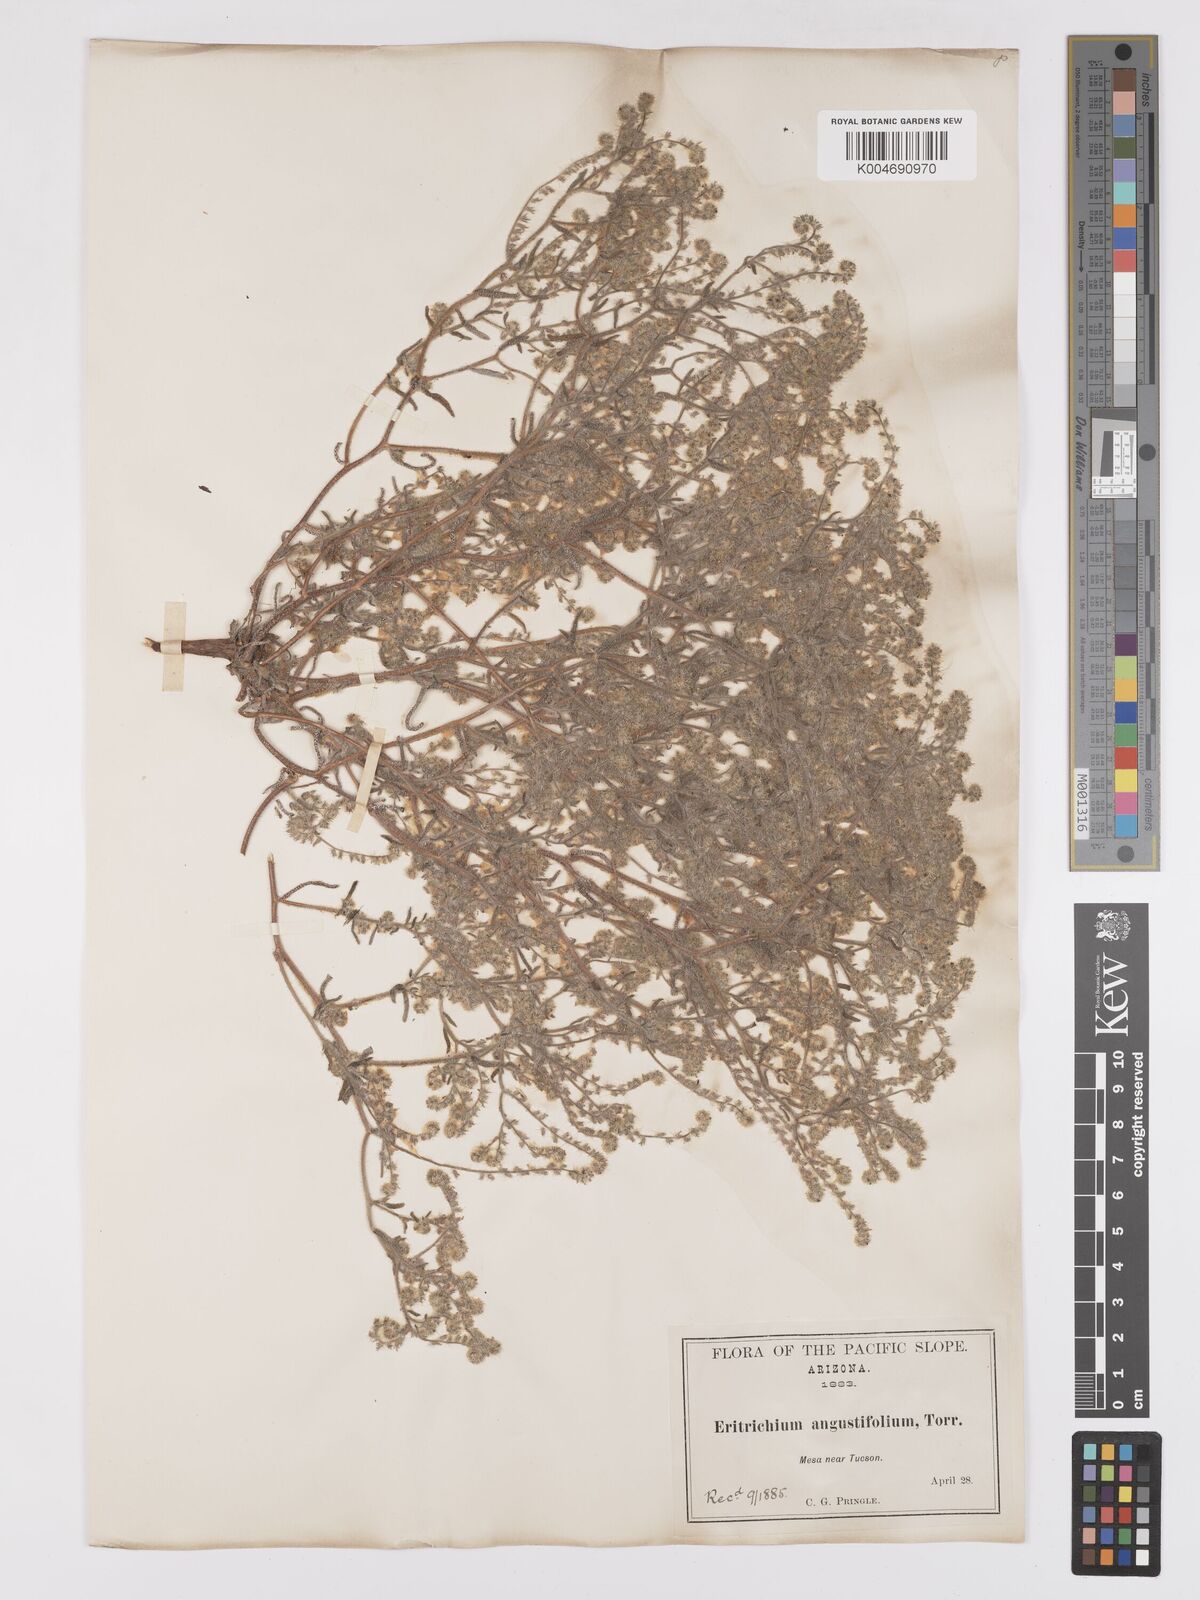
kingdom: Plantae
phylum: Tracheophyta
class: Magnoliopsida
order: Boraginales
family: Boraginaceae
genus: Johnstonella
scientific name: Johnstonella angustifolia
